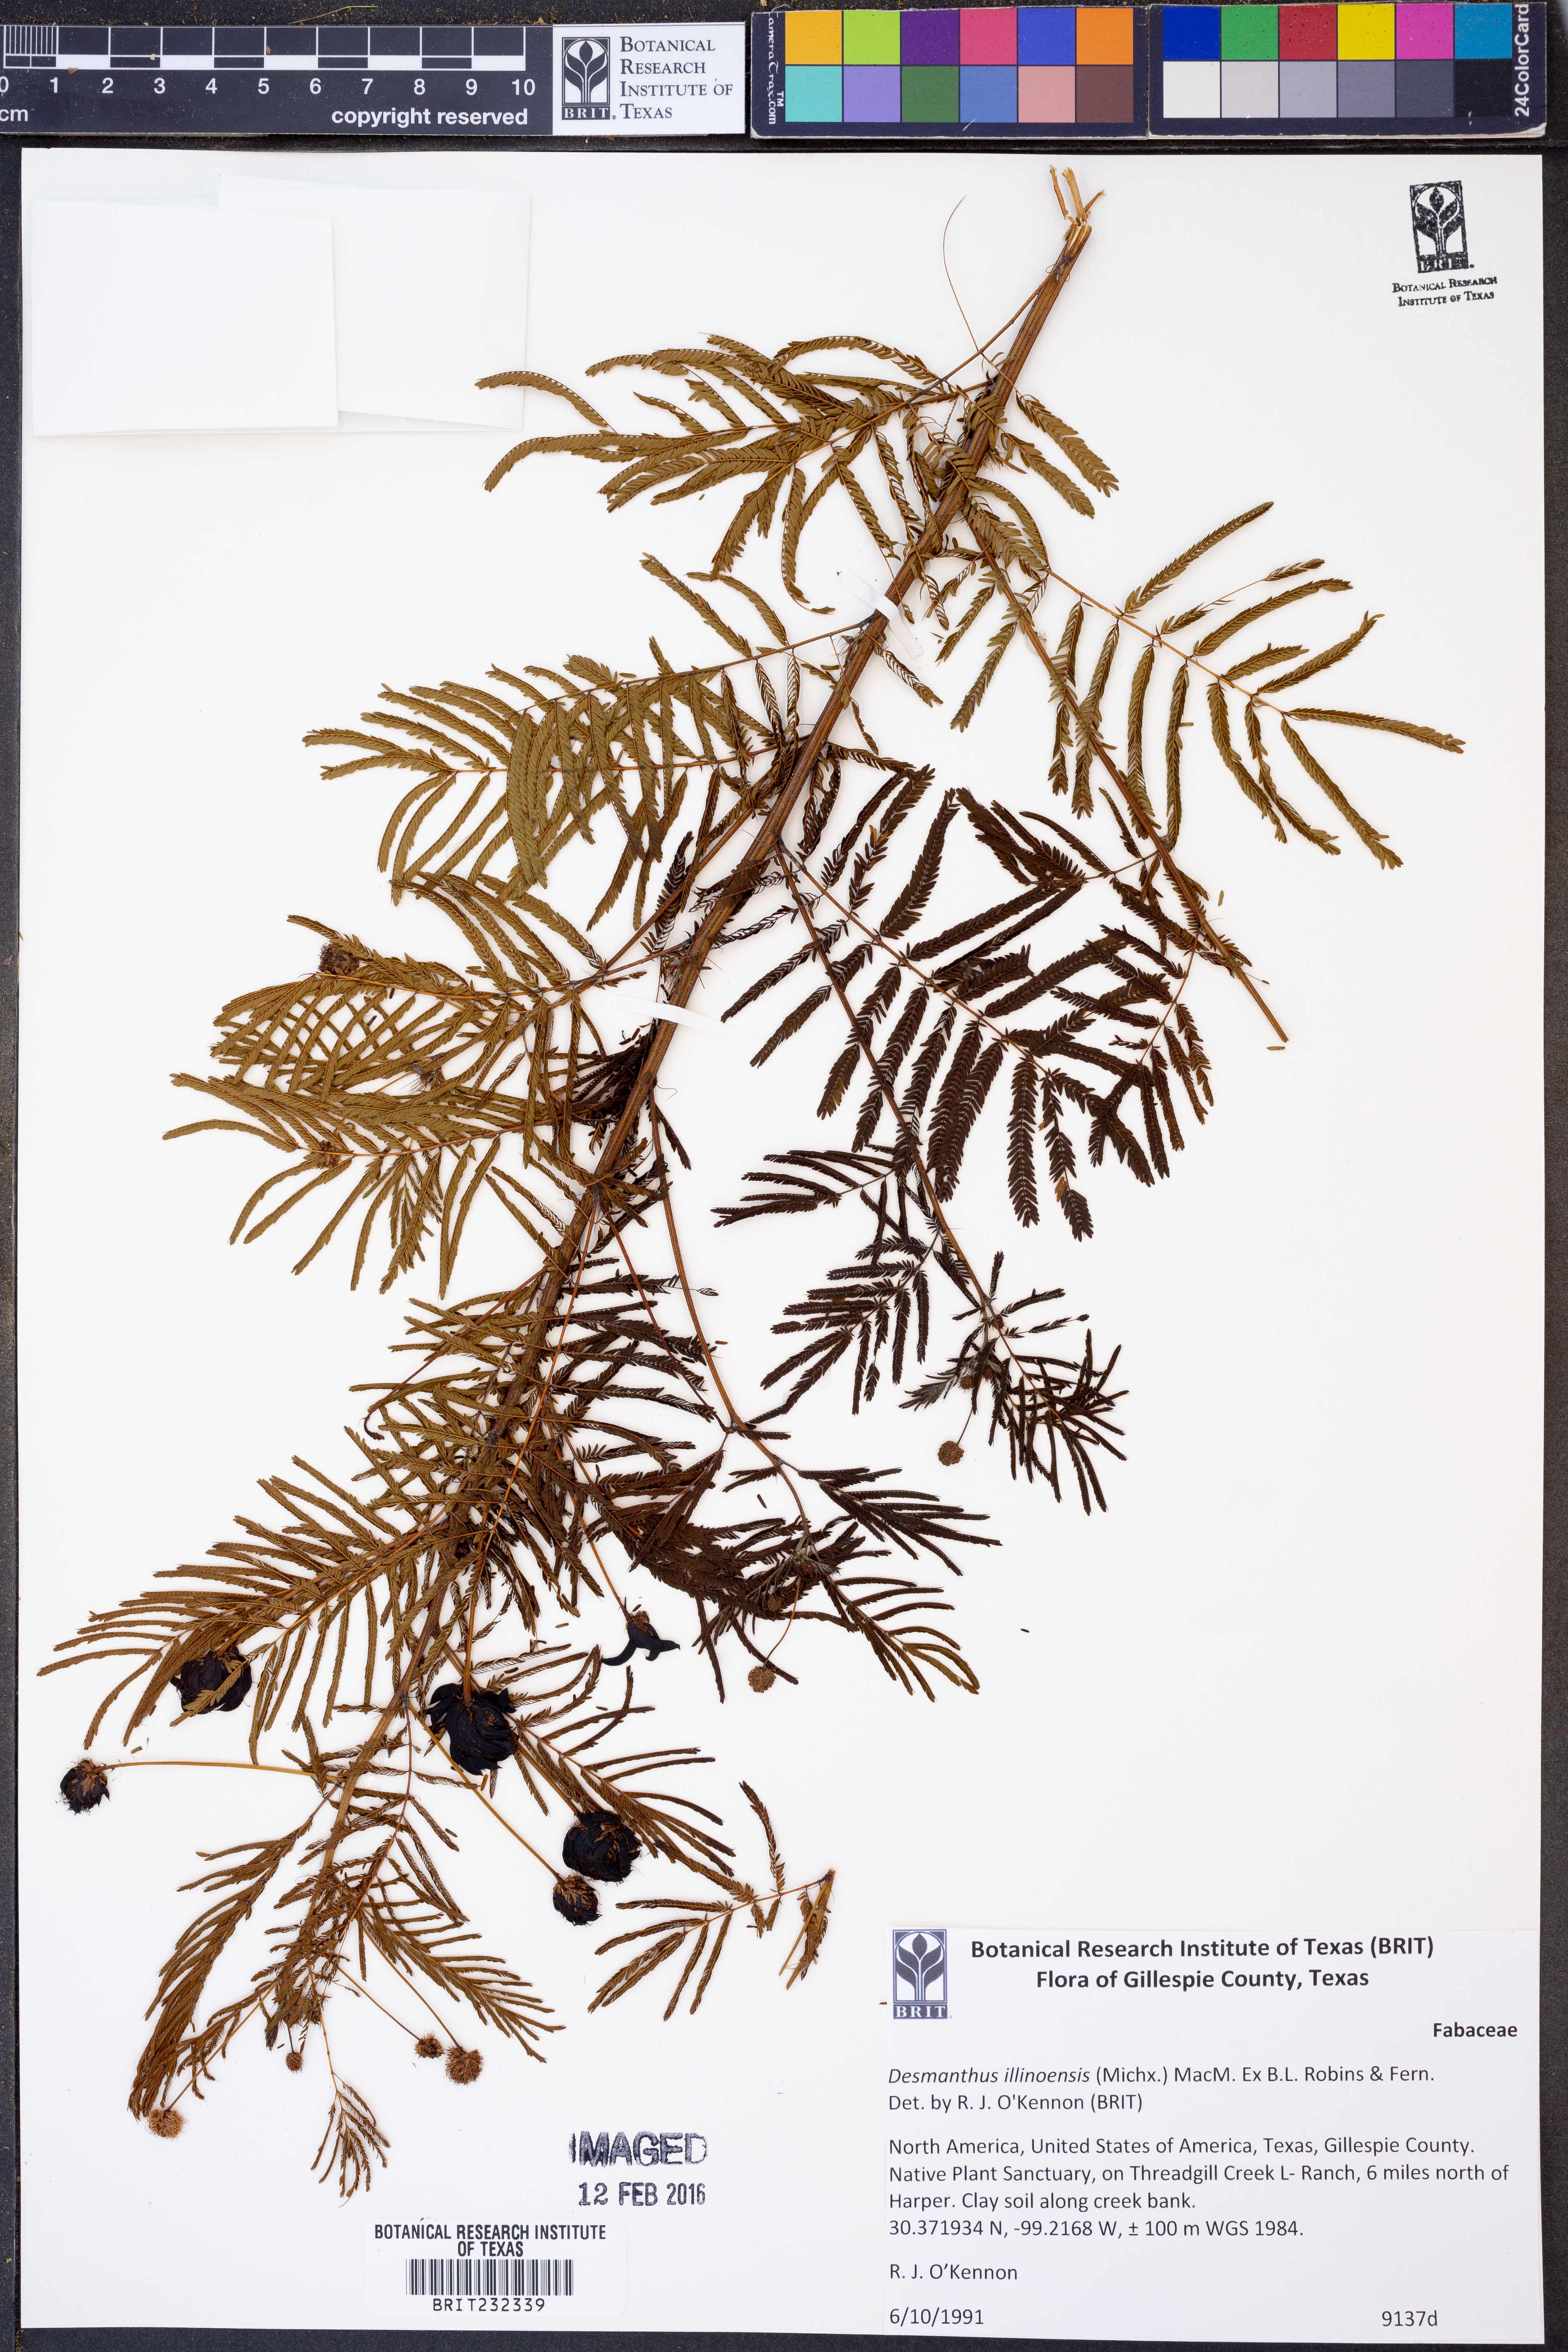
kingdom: Plantae
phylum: Tracheophyta
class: Magnoliopsida
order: Fabales
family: Fabaceae
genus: Desmanthus
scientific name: Desmanthus illinoensis
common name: Illinois bundle-flower
